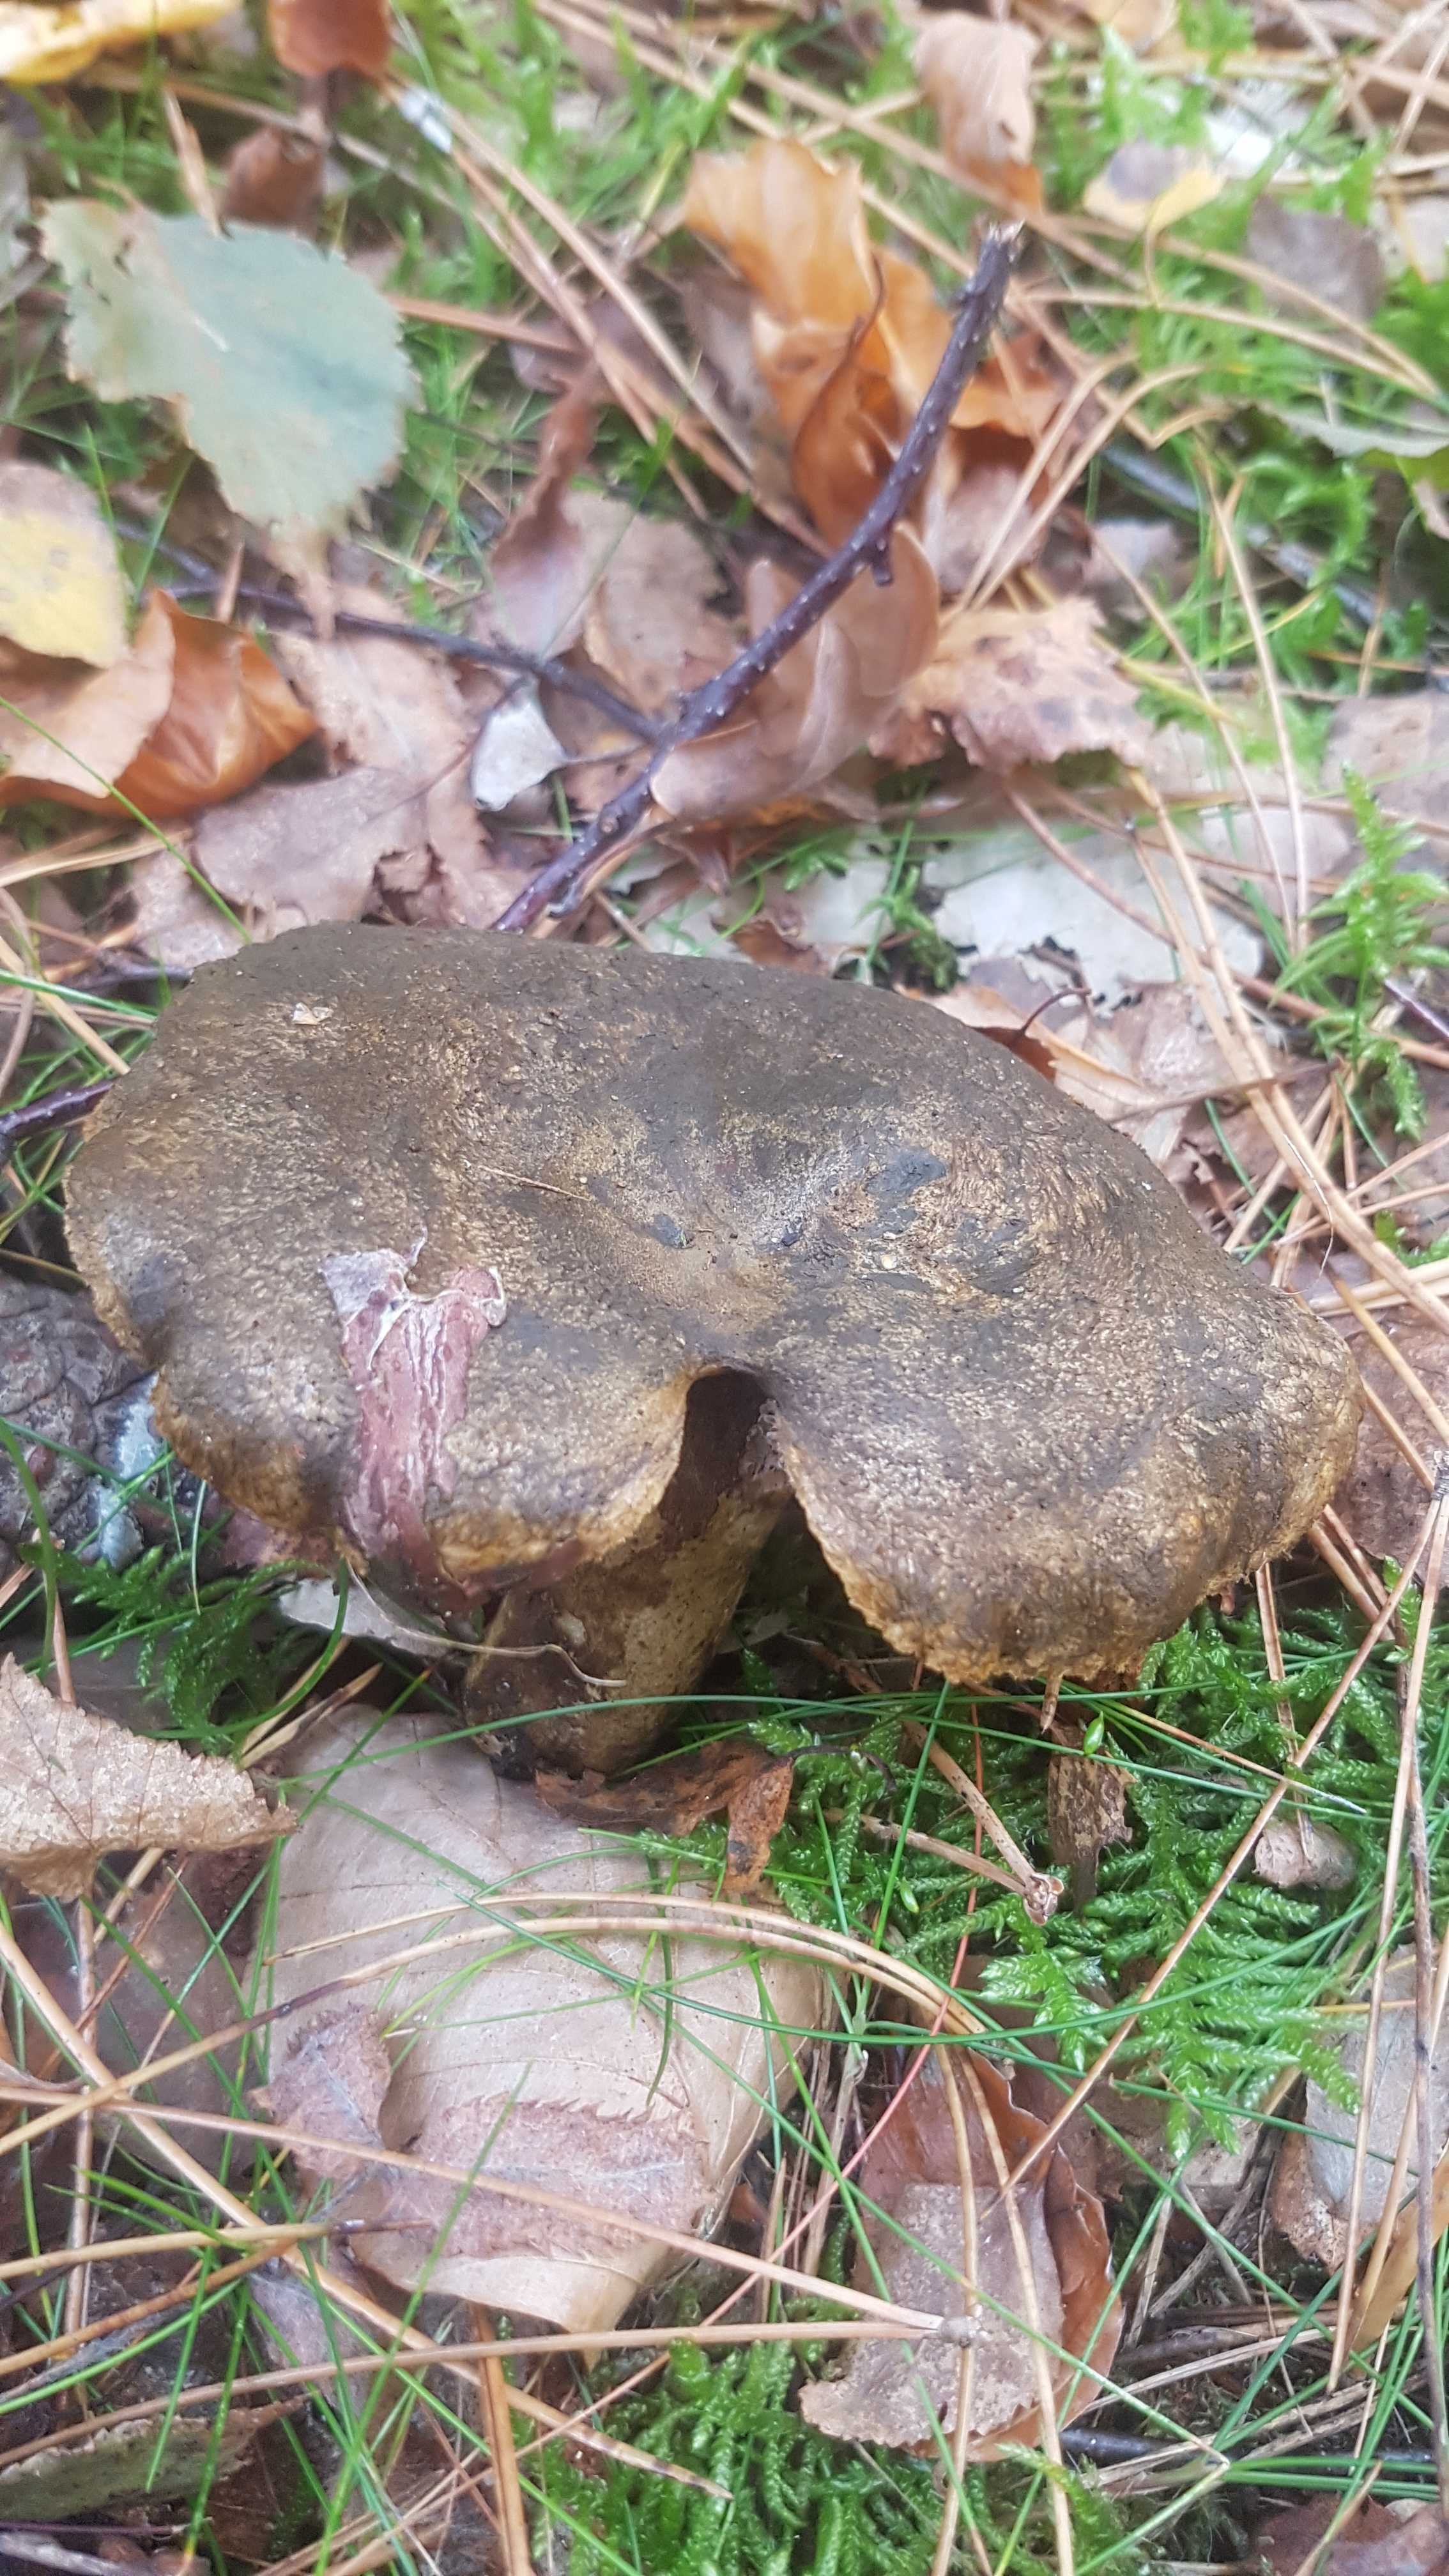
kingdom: Fungi
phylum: Basidiomycota
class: Agaricomycetes
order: Russulales
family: Russulaceae
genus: Lactarius
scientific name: Lactarius necator
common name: manddraber-mælkehat
